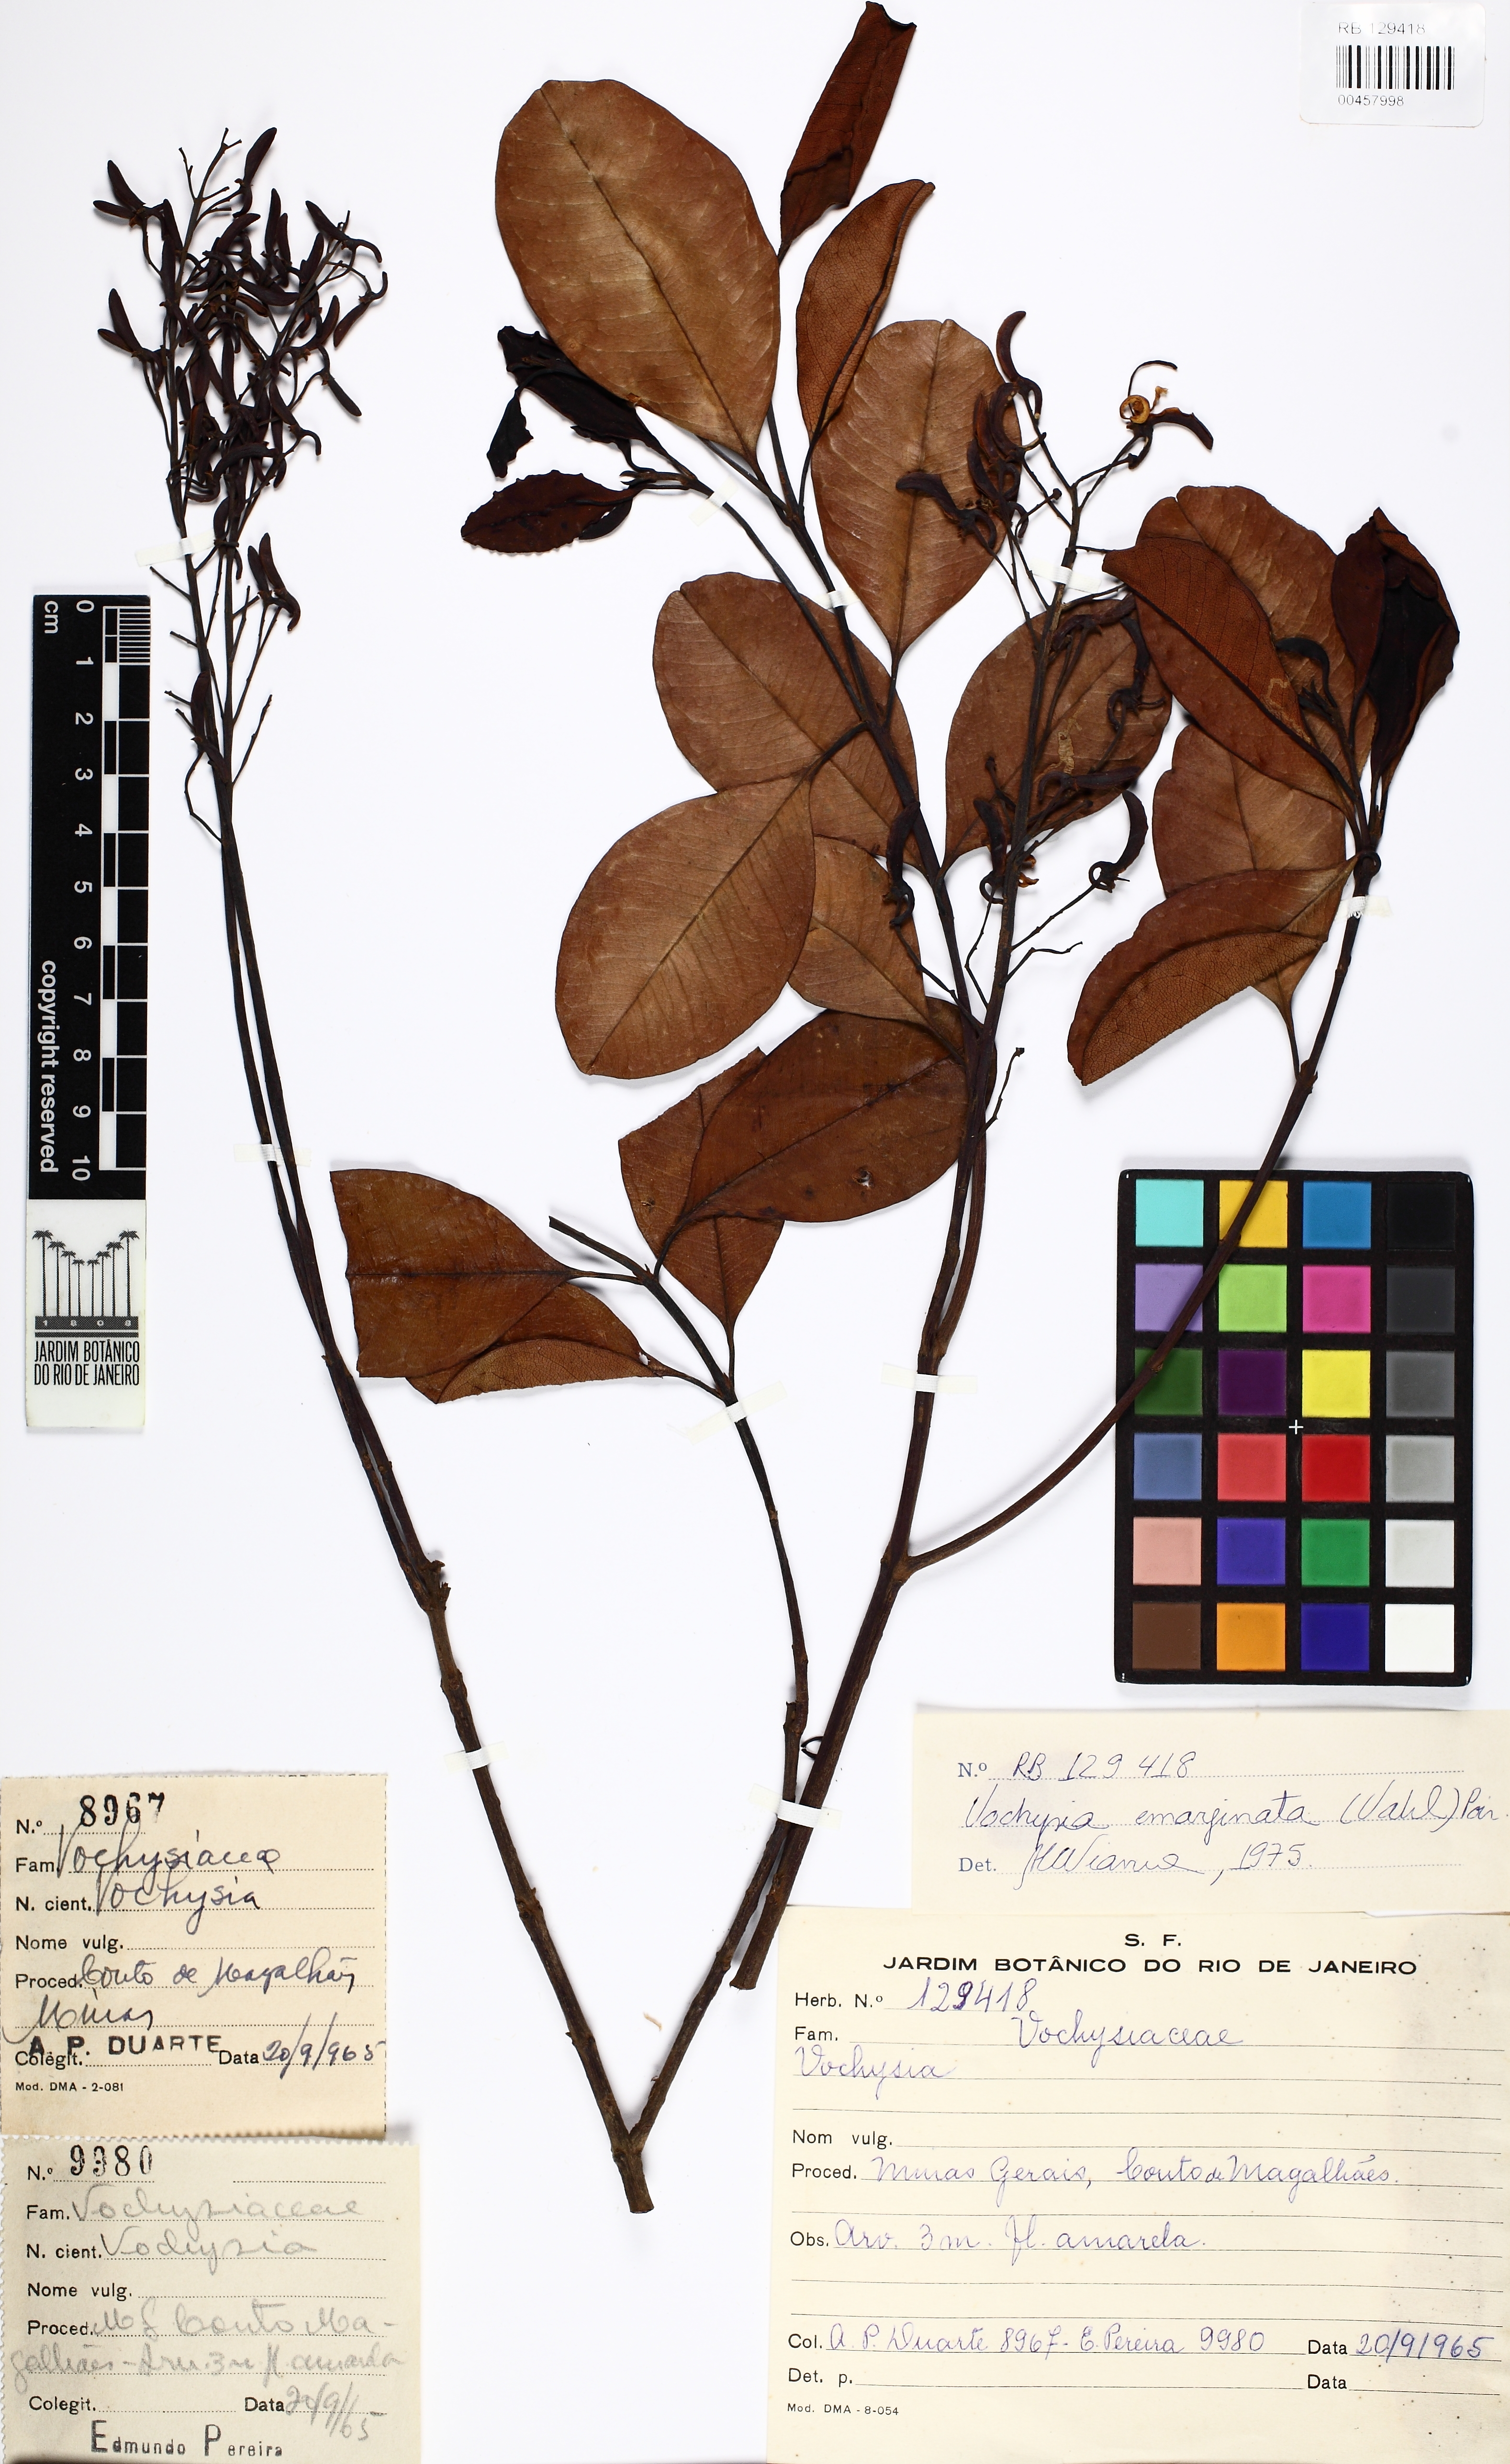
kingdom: Plantae
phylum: Tracheophyta
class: Magnoliopsida
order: Myrtales
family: Vochysiaceae
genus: Vochysia
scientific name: Vochysia emarginata
